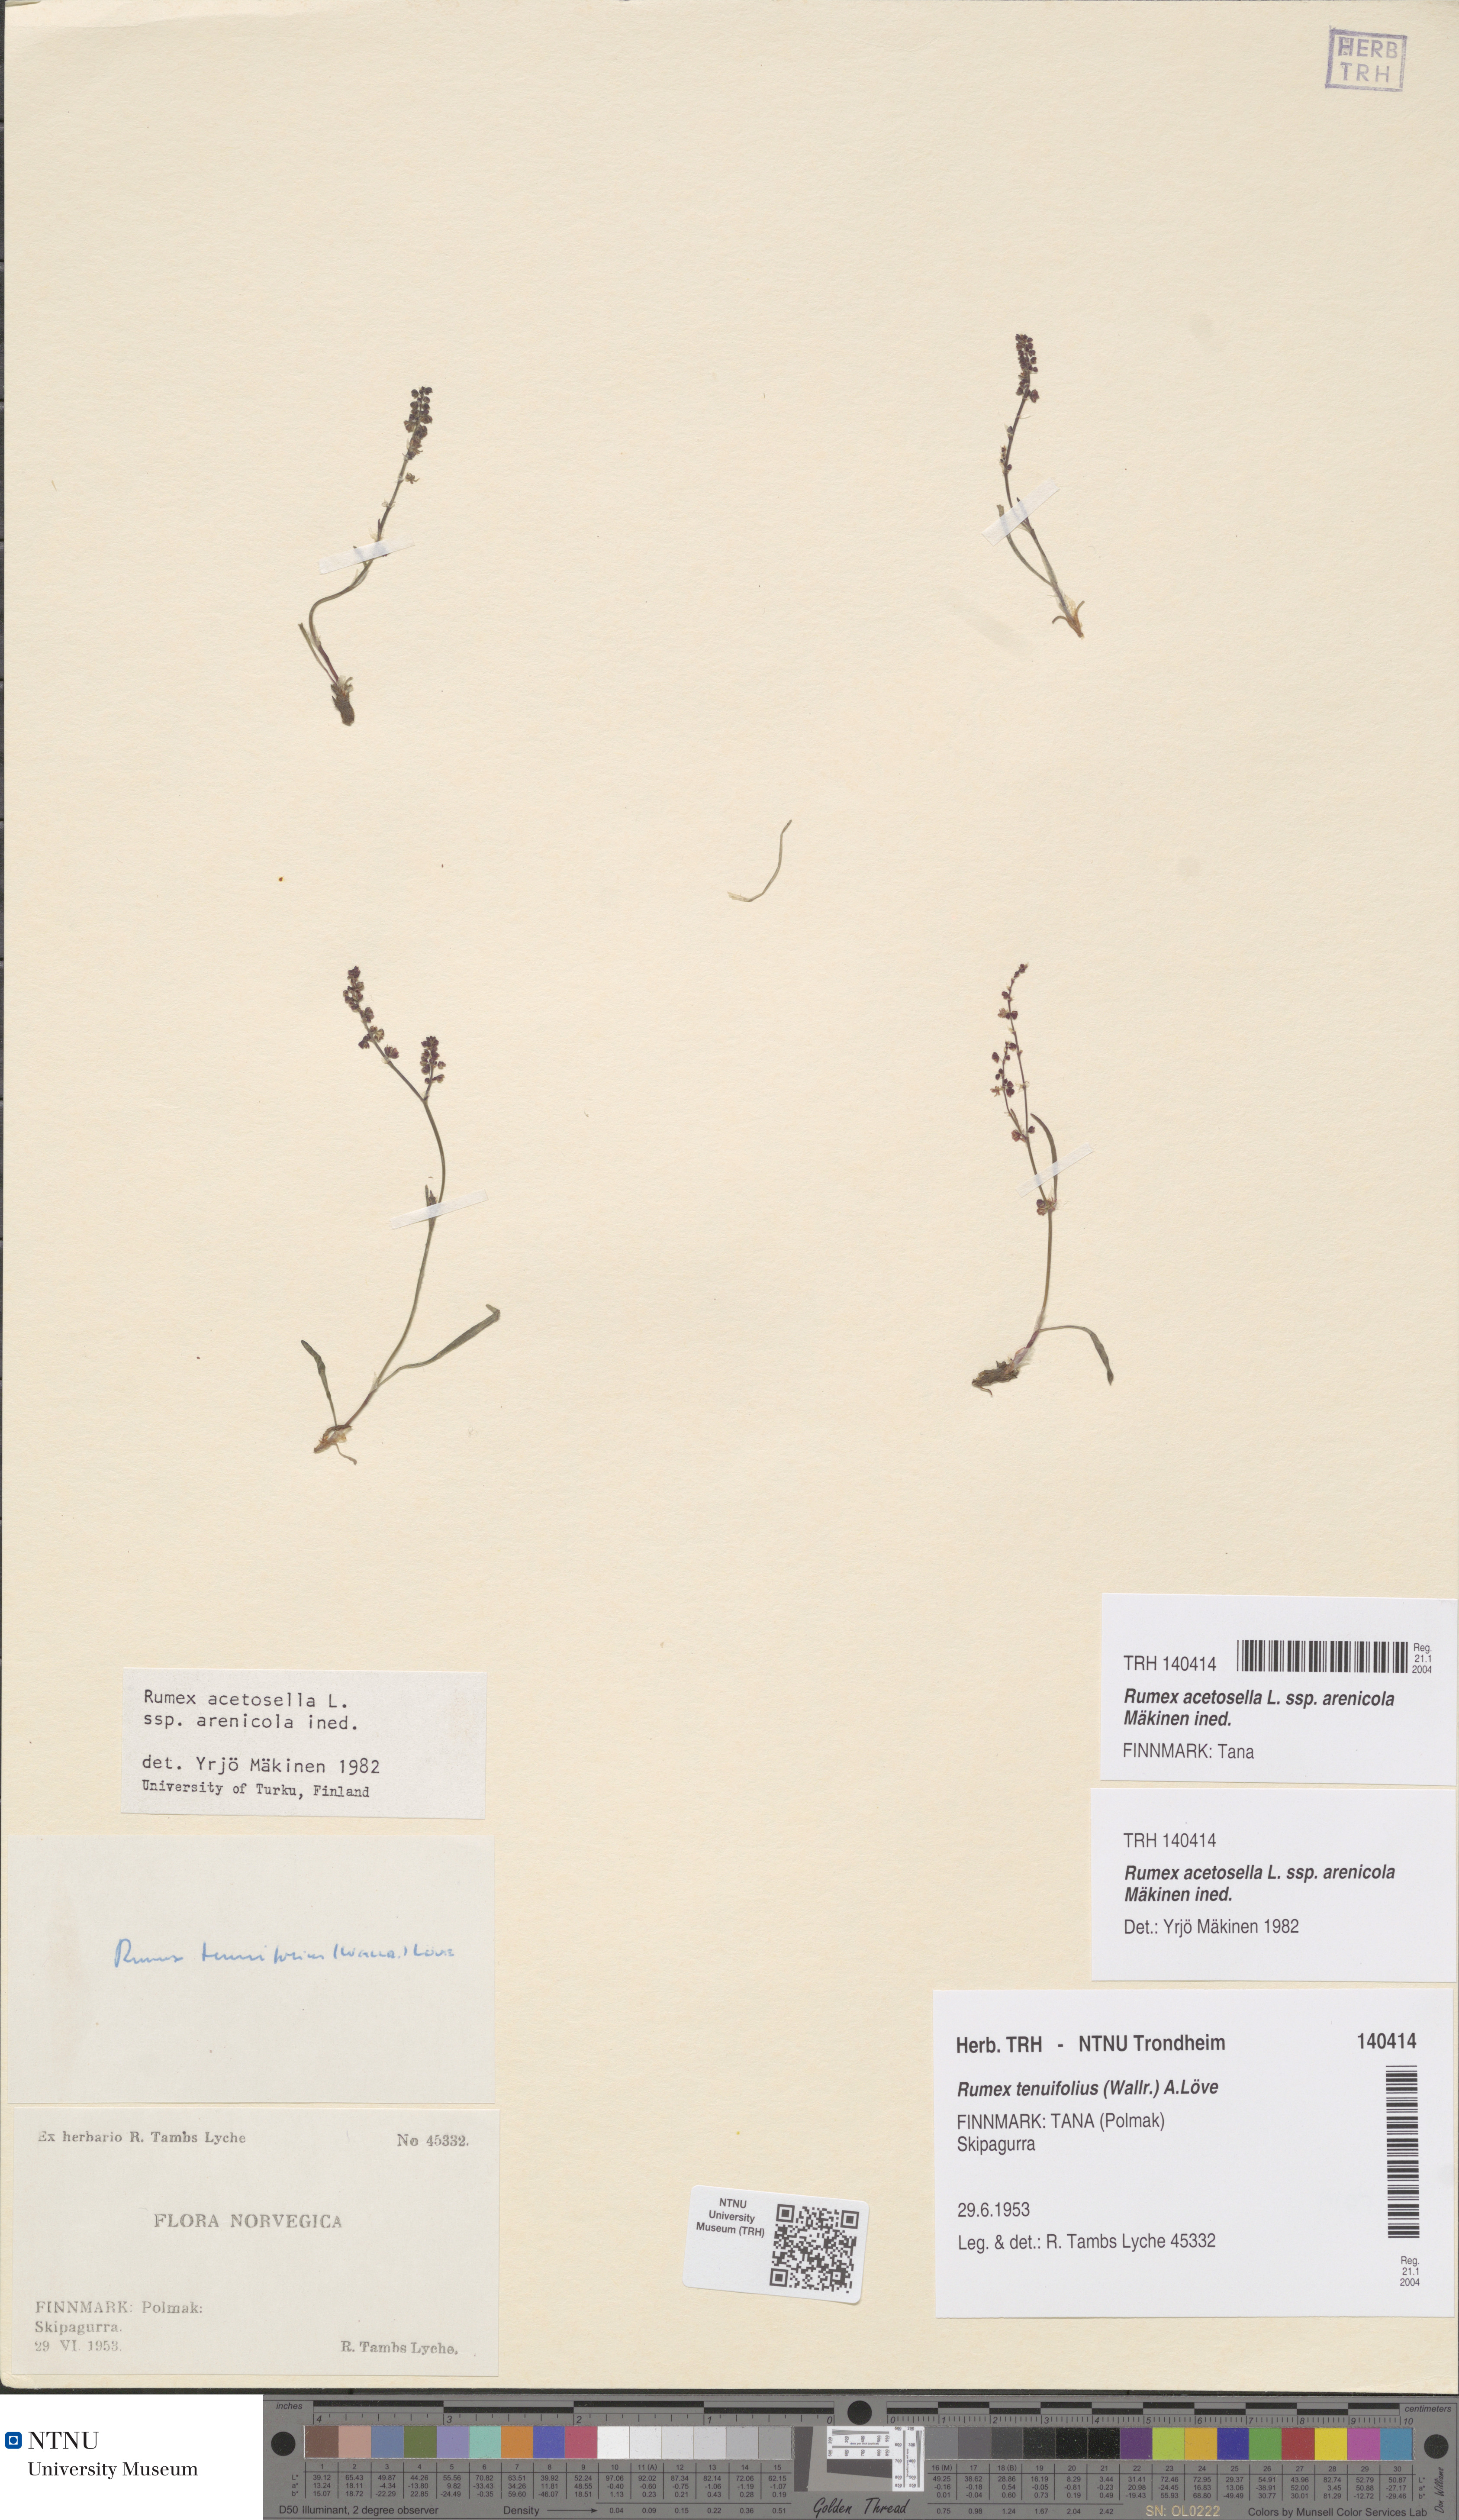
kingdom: Plantae
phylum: Tracheophyta
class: Magnoliopsida
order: Caryophyllales
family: Polygonaceae
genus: Rumex
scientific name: Rumex acetosella
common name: Common sheep sorrel
